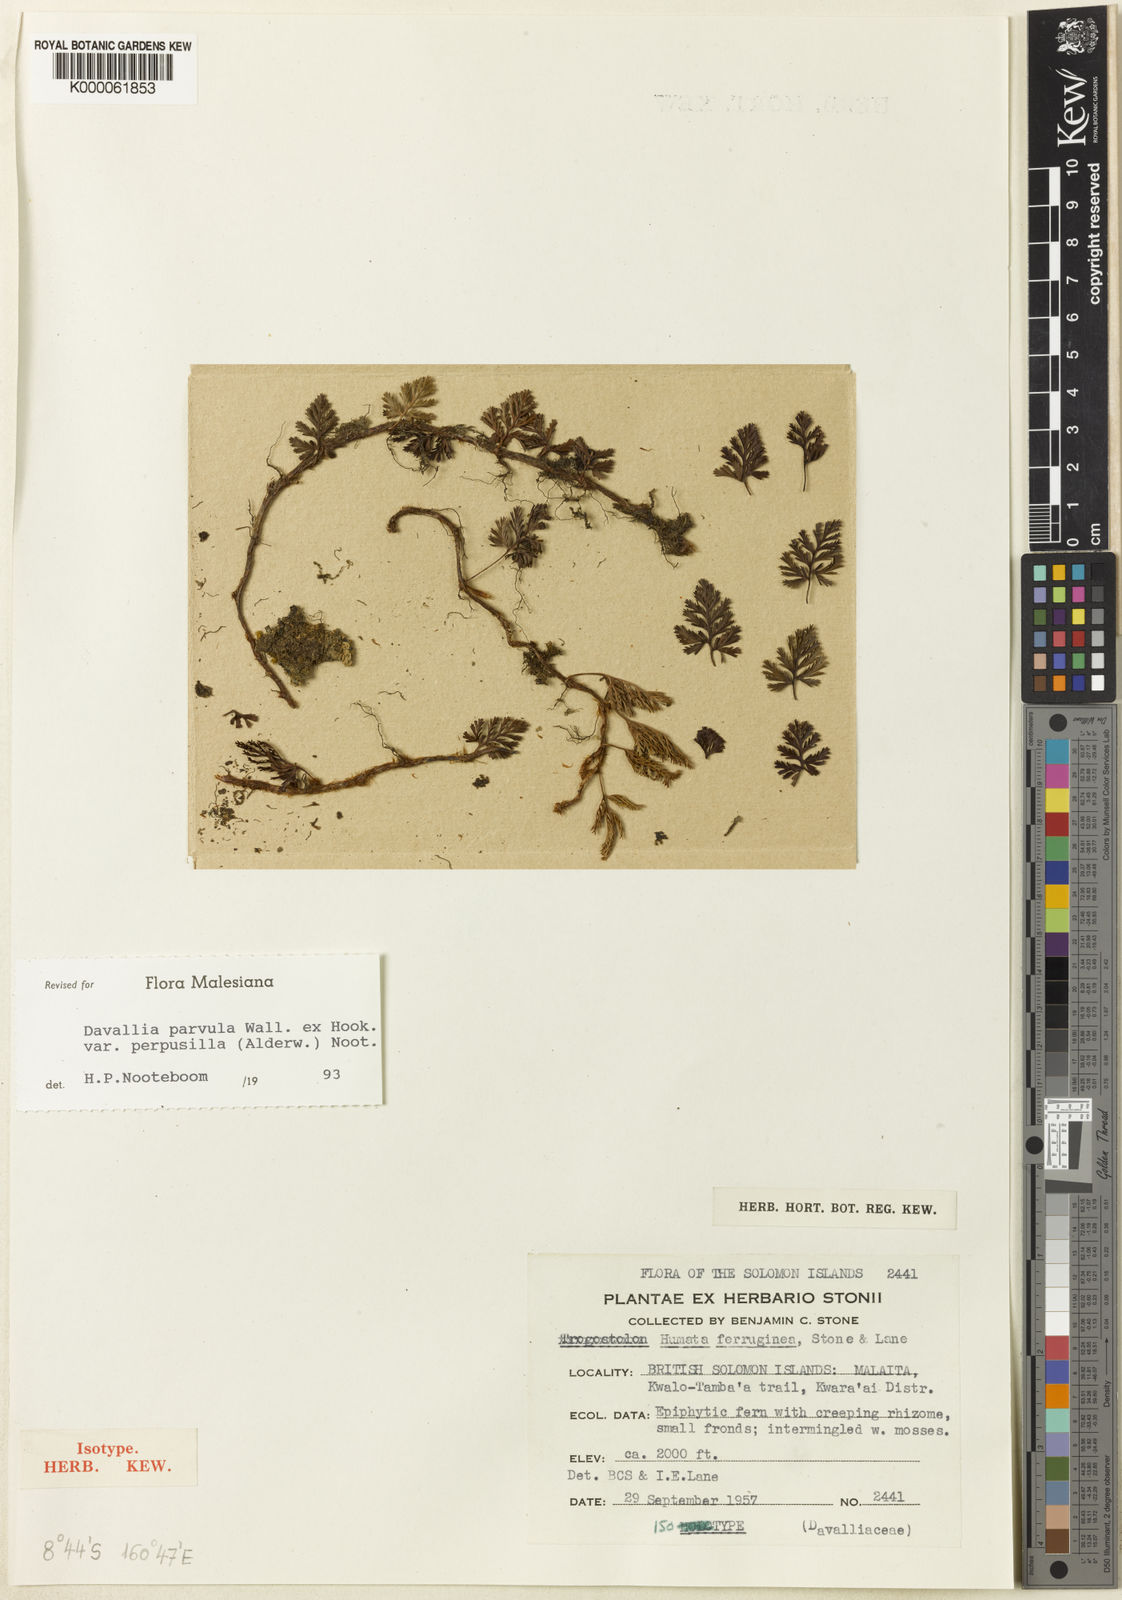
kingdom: Plantae
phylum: Tracheophyta
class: Polypodiopsida
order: Polypodiales
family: Davalliaceae
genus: Davallia
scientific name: Davallia pusilla
